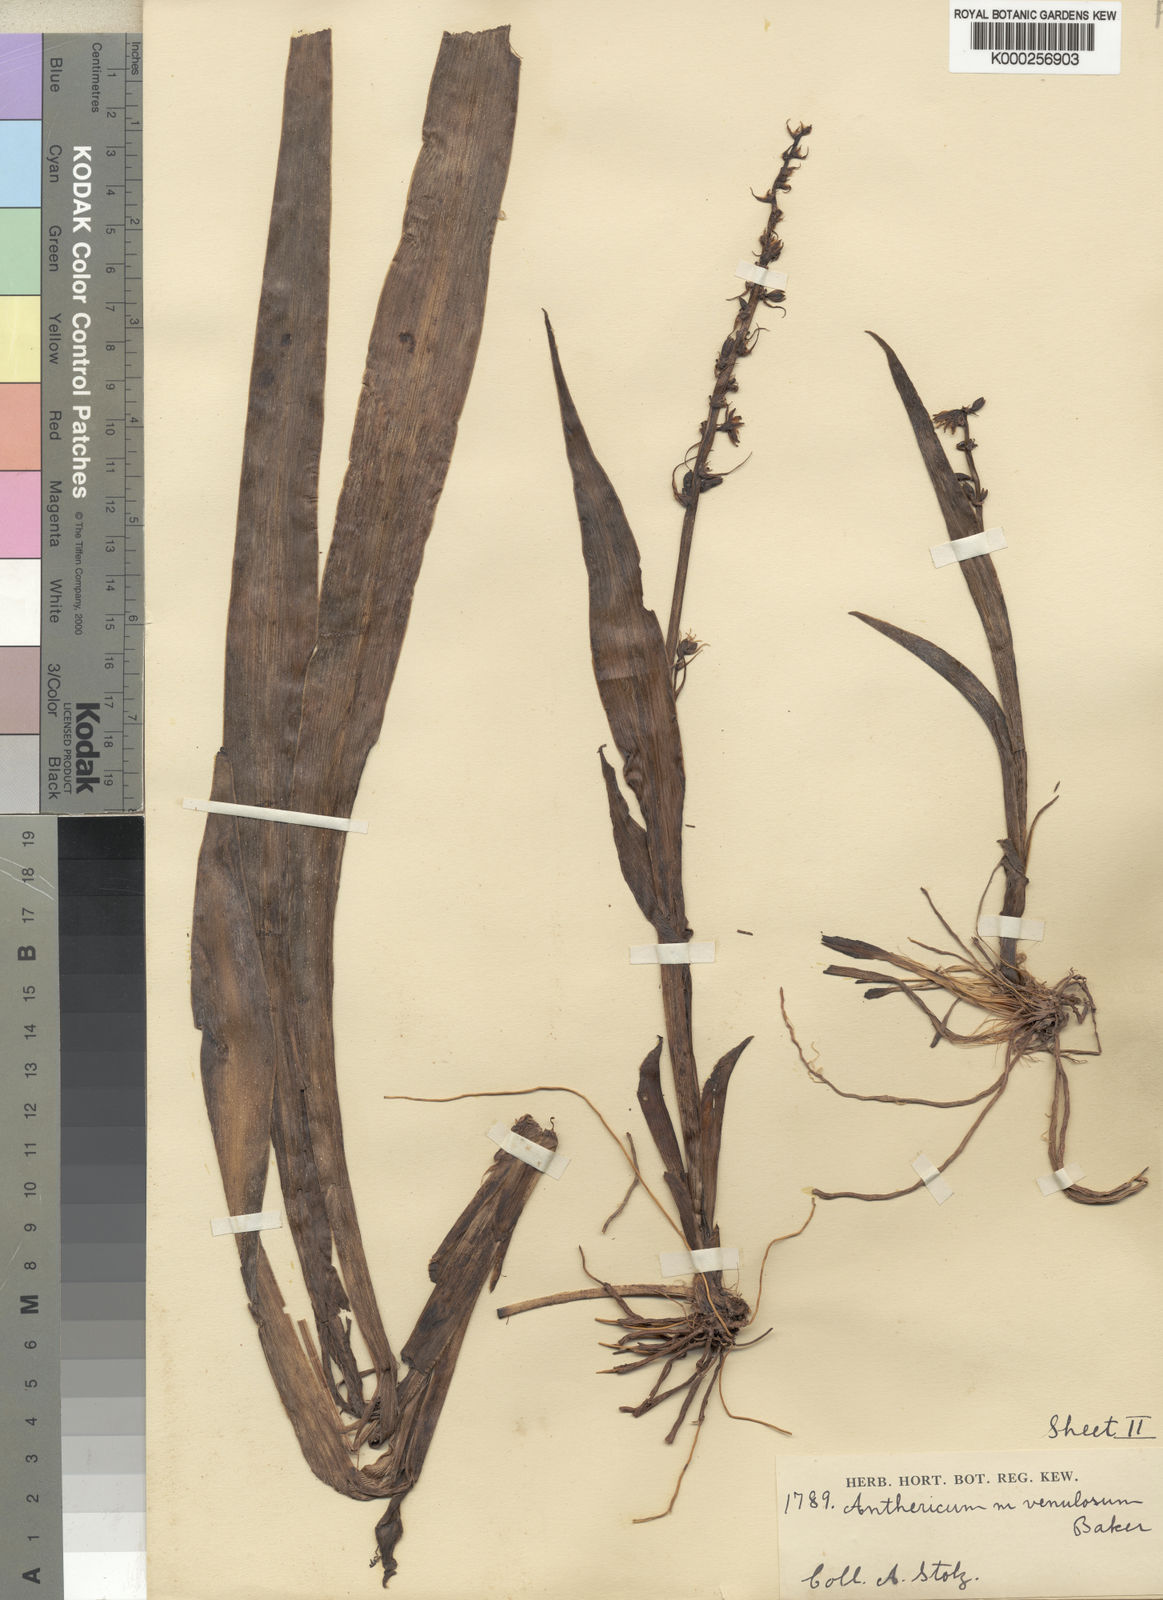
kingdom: Plantae
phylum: Tracheophyta
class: Liliopsida
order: Asparagales
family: Asparagaceae
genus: Chlorophytum
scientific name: Chlorophytum blepharophyllum
